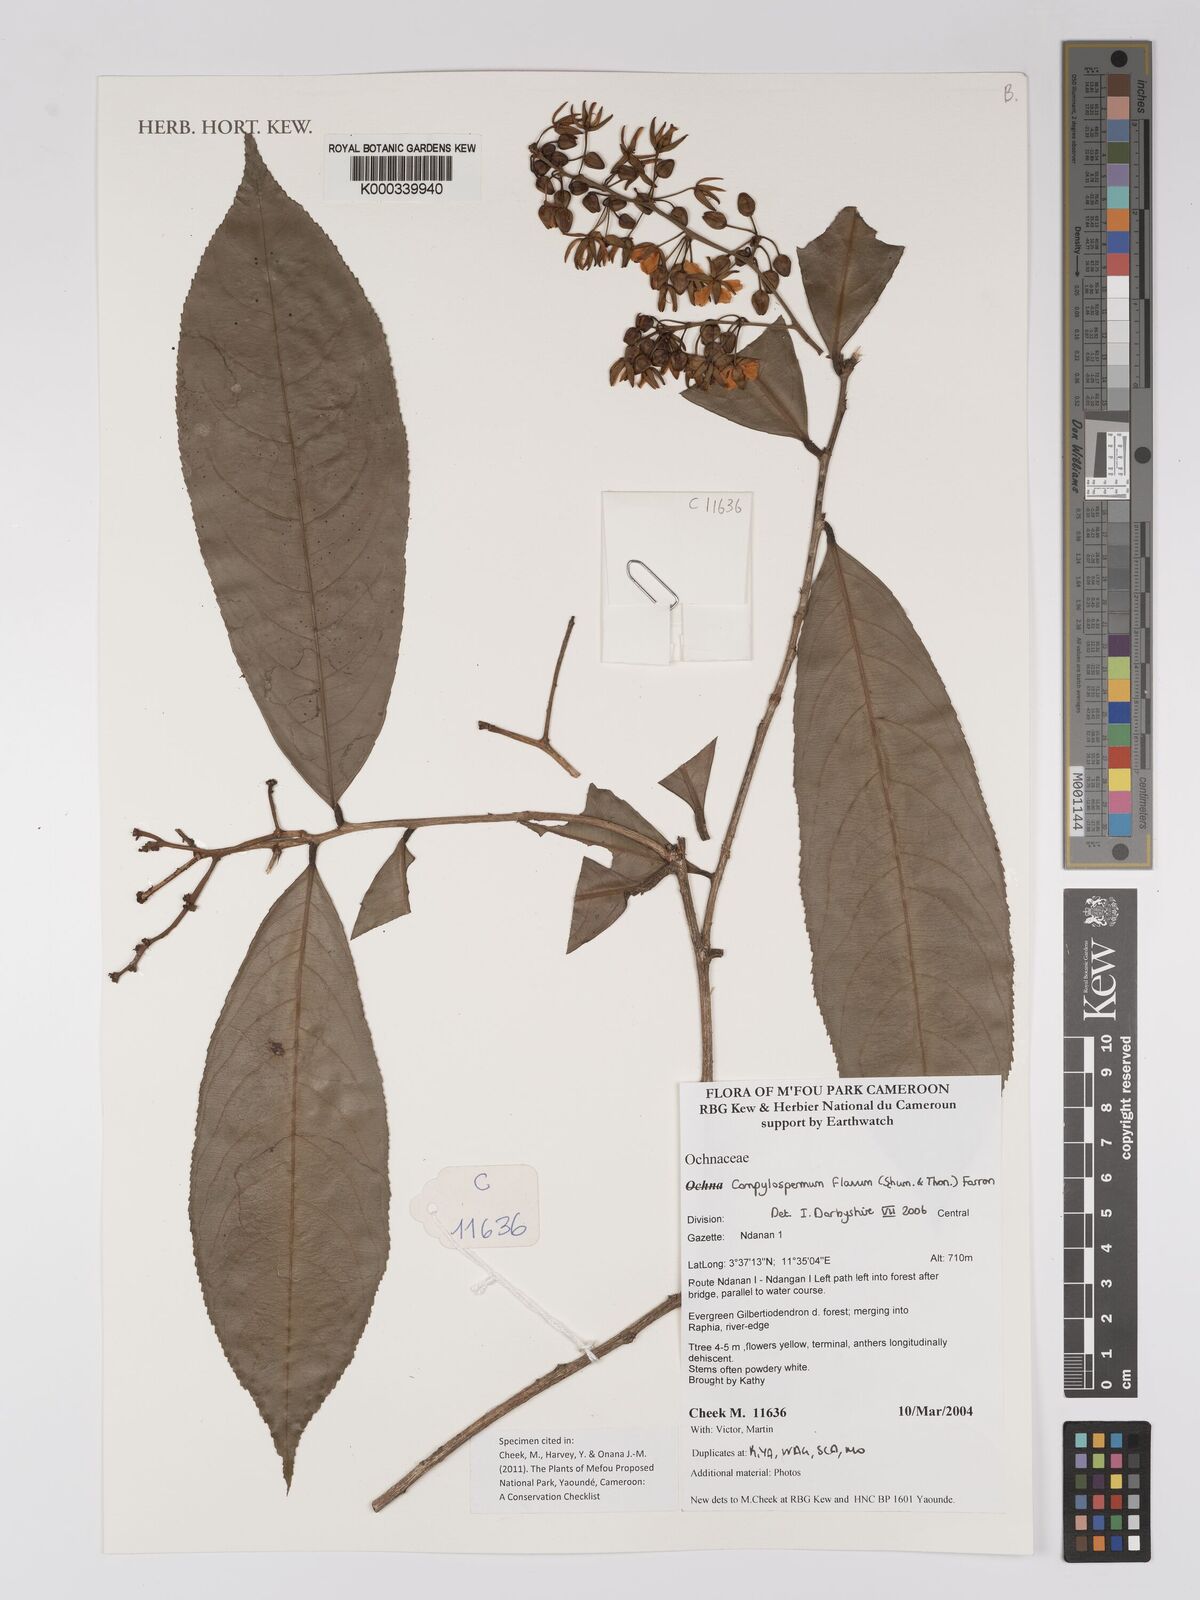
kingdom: Plantae
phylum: Tracheophyta
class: Magnoliopsida
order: Malpighiales
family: Ochnaceae
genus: Campylospermum
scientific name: Campylospermum flavum
